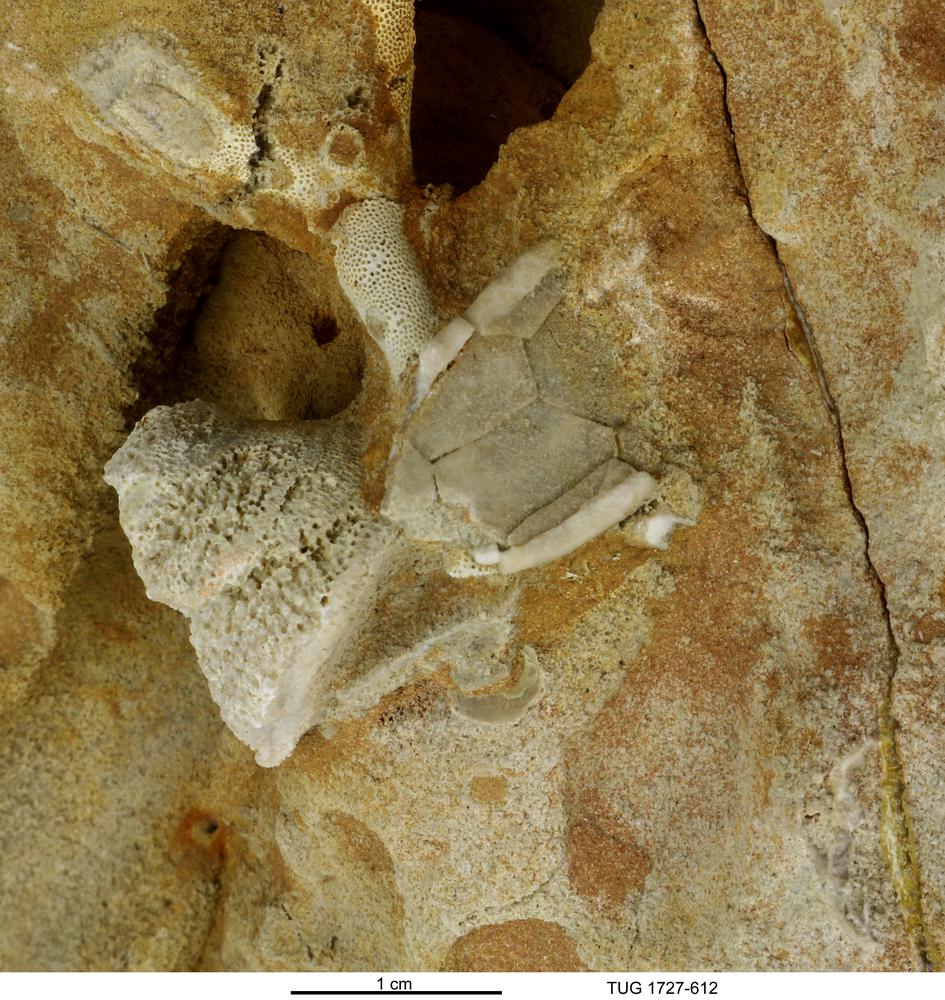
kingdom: Animalia
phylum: Echinodermata
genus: Rhipidocystis
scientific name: Rhipidocystis
